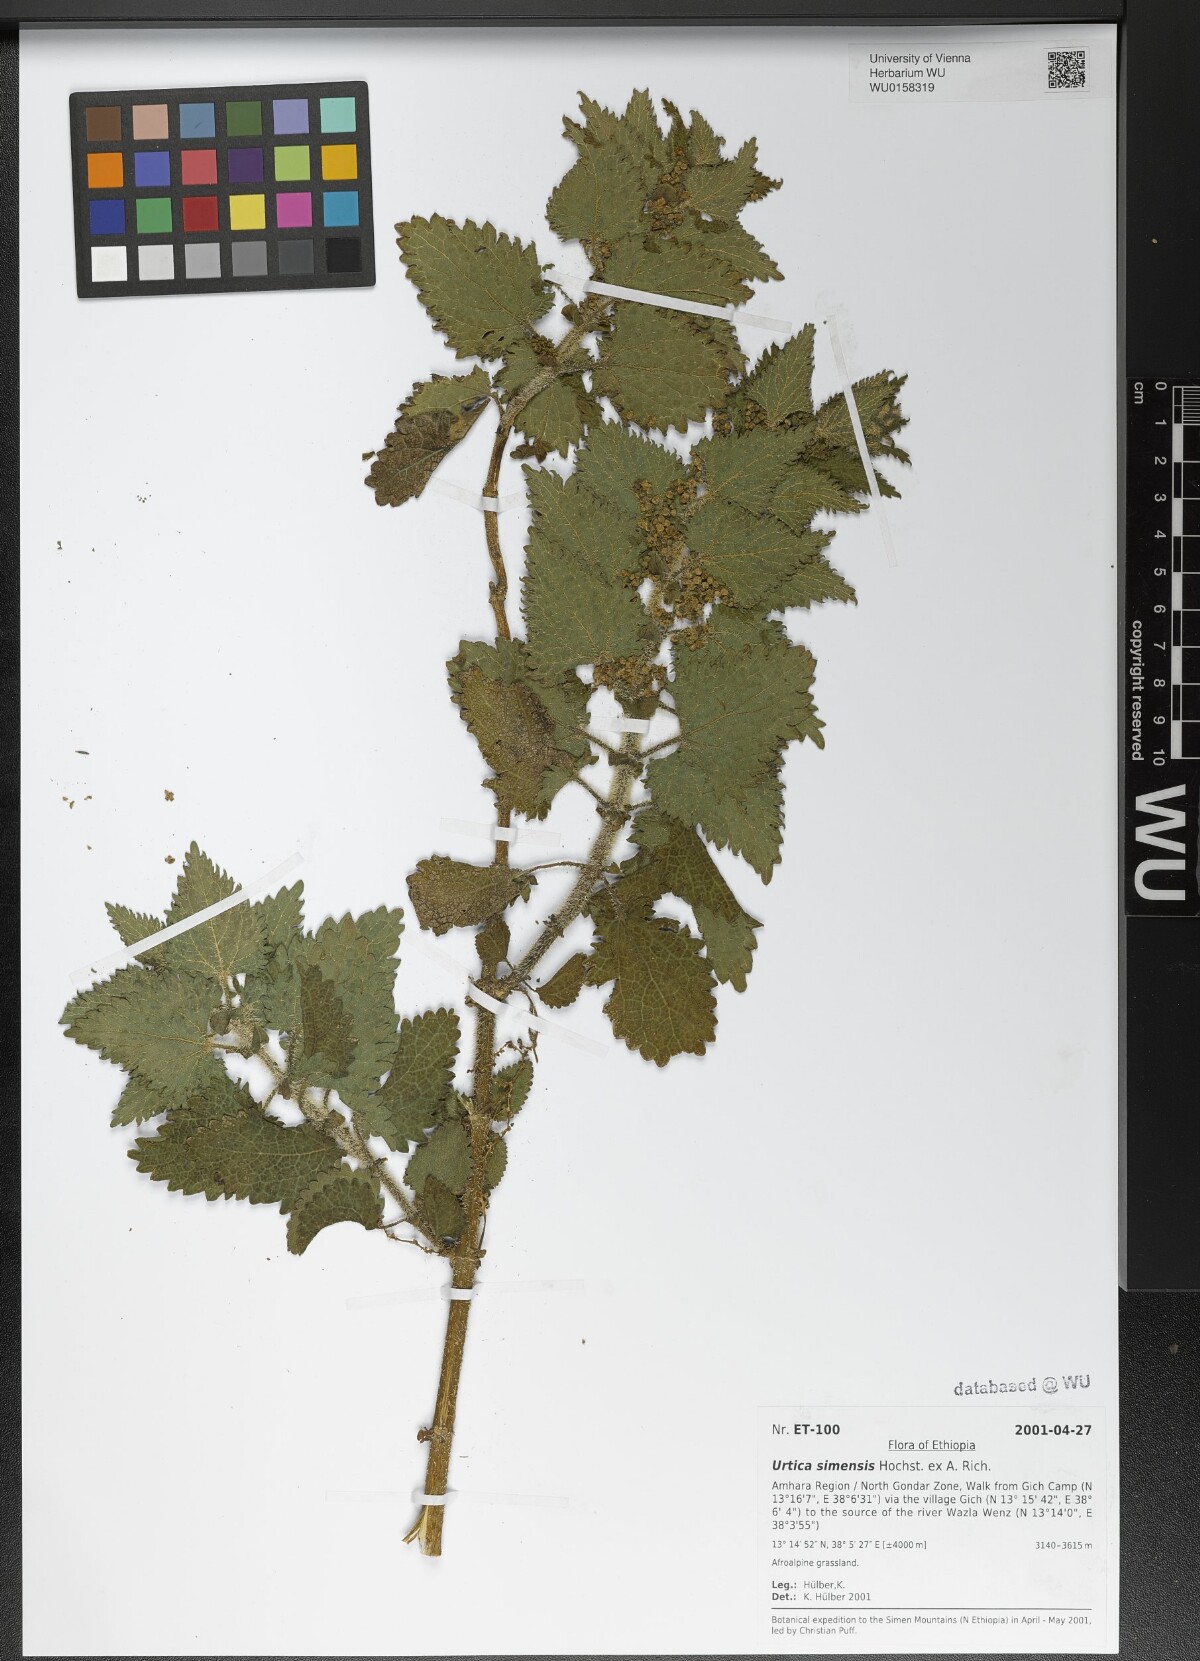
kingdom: Plantae
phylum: Tracheophyta
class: Magnoliopsida
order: Rosales
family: Urticaceae
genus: Urtica
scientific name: Urtica simensis
